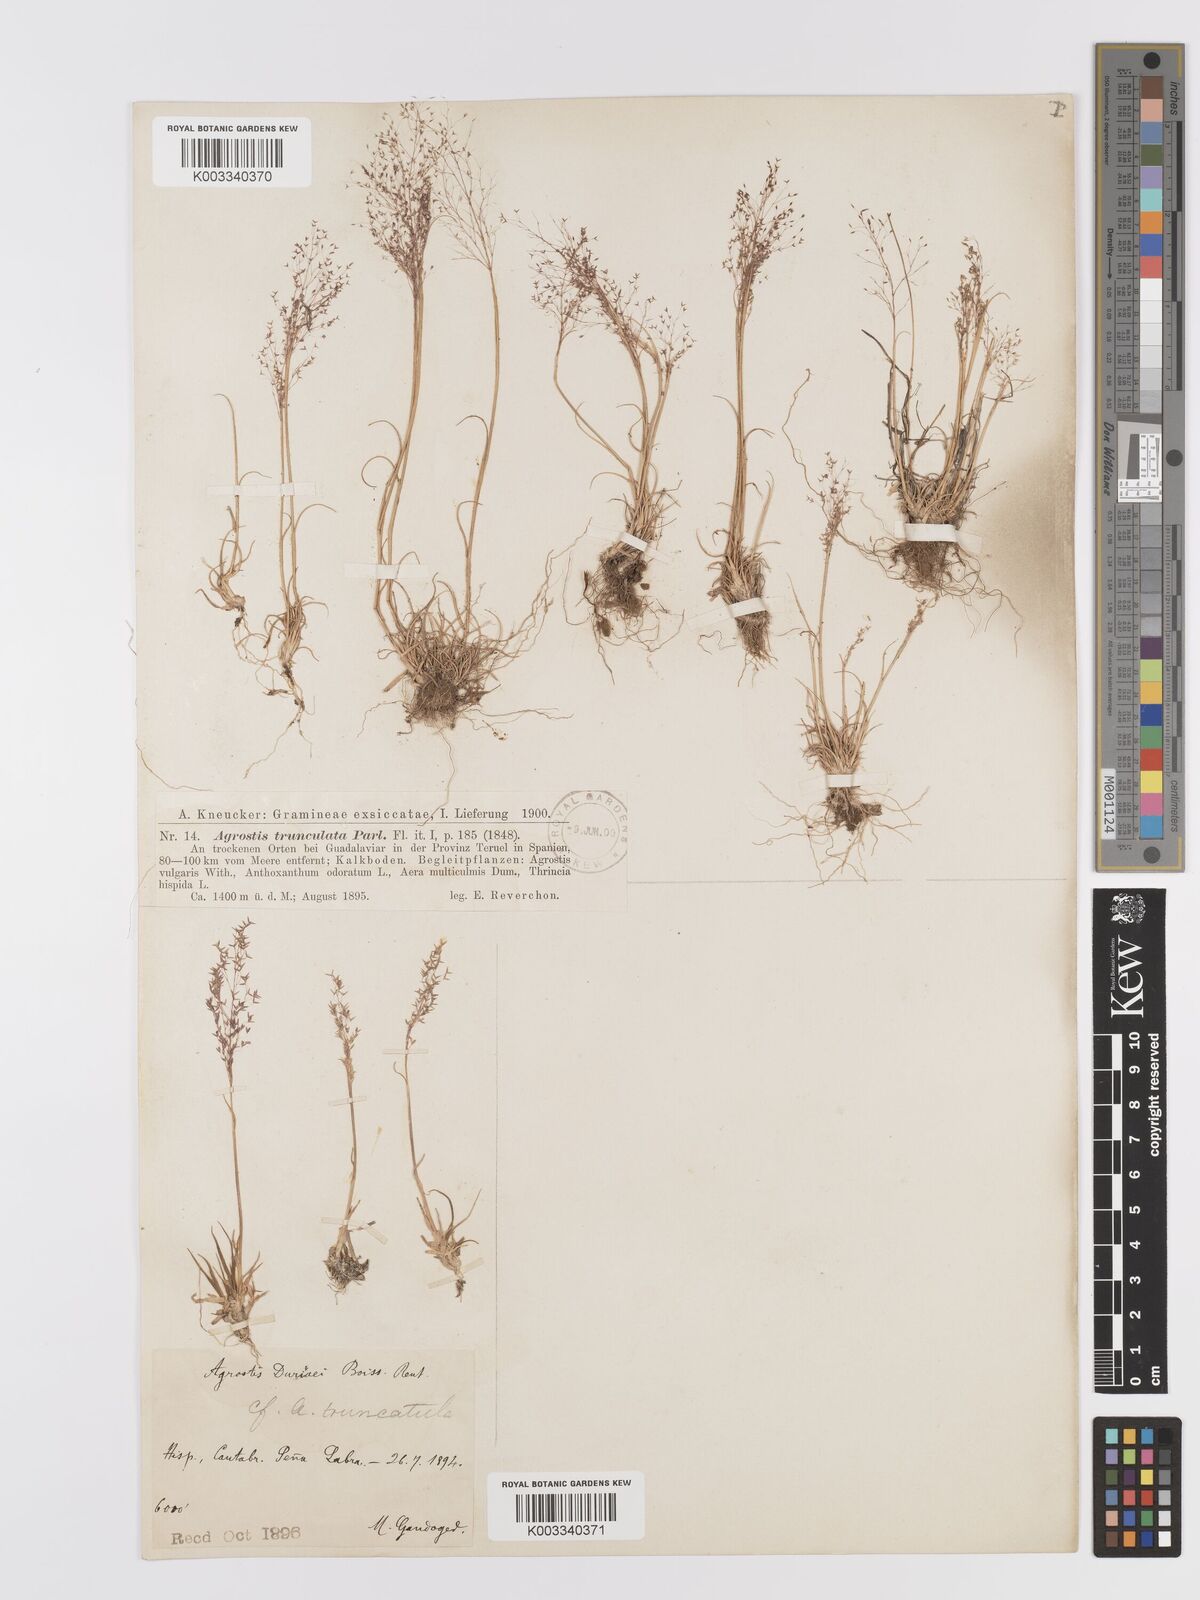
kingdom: Plantae
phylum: Tracheophyta
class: Liliopsida
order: Poales
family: Poaceae
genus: Agrostis
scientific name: Agrostis castellana
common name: Highland bent
